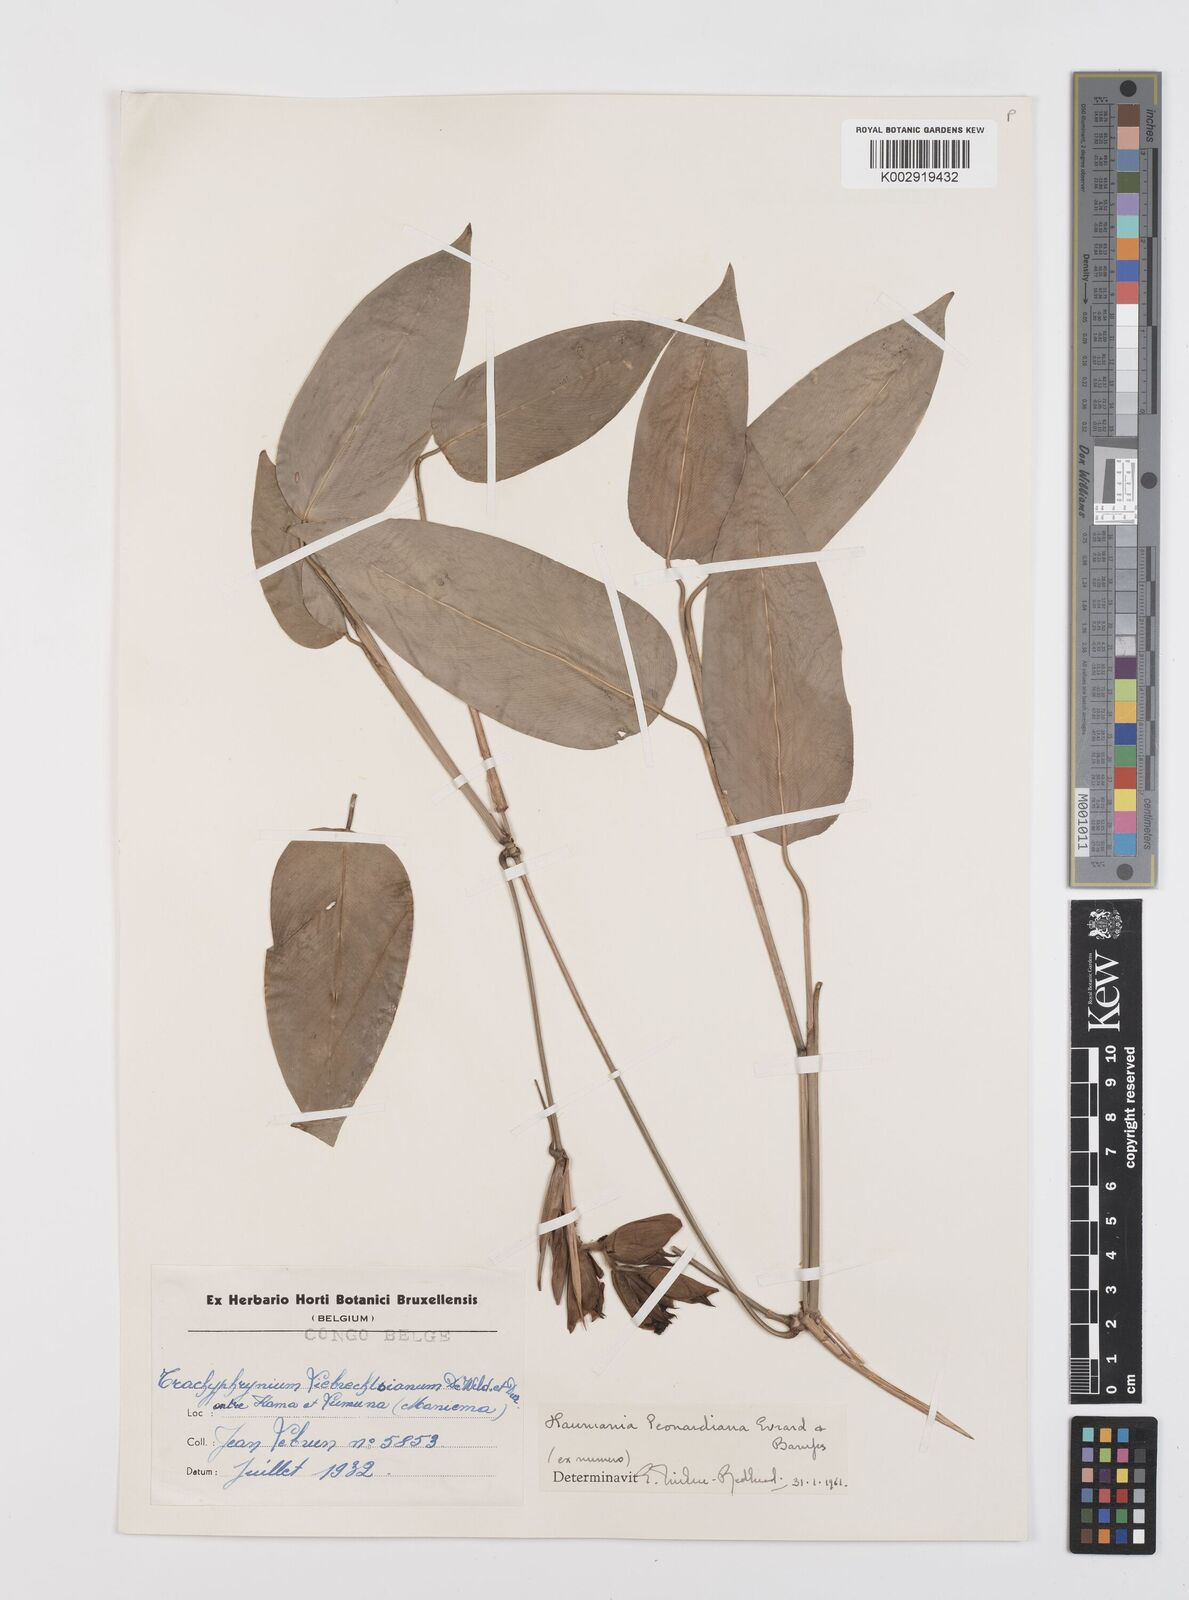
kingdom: Plantae
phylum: Tracheophyta
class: Liliopsida
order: Zingiberales
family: Marantaceae
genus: Haumania
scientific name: Haumania leonardiana
